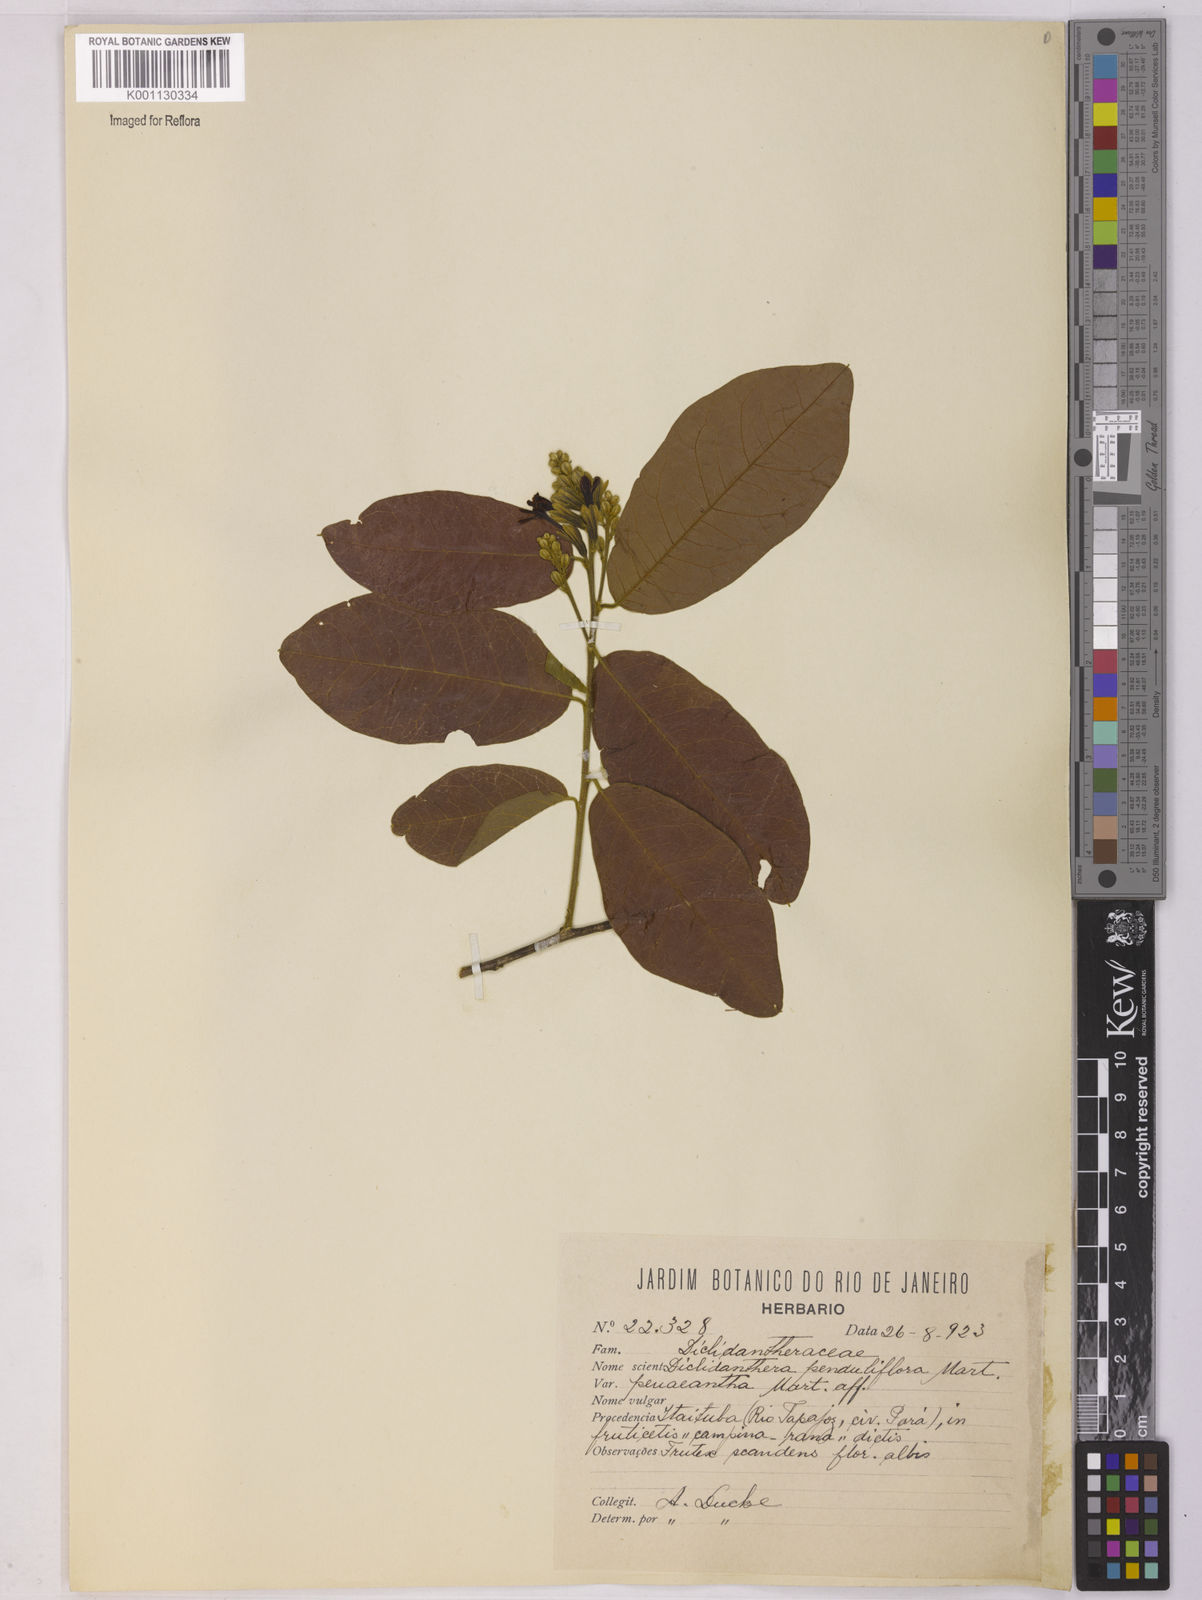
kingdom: Plantae
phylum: Tracheophyta
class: Magnoliopsida
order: Fabales
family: Polygalaceae
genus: Diclidanthera
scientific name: Diclidanthera
